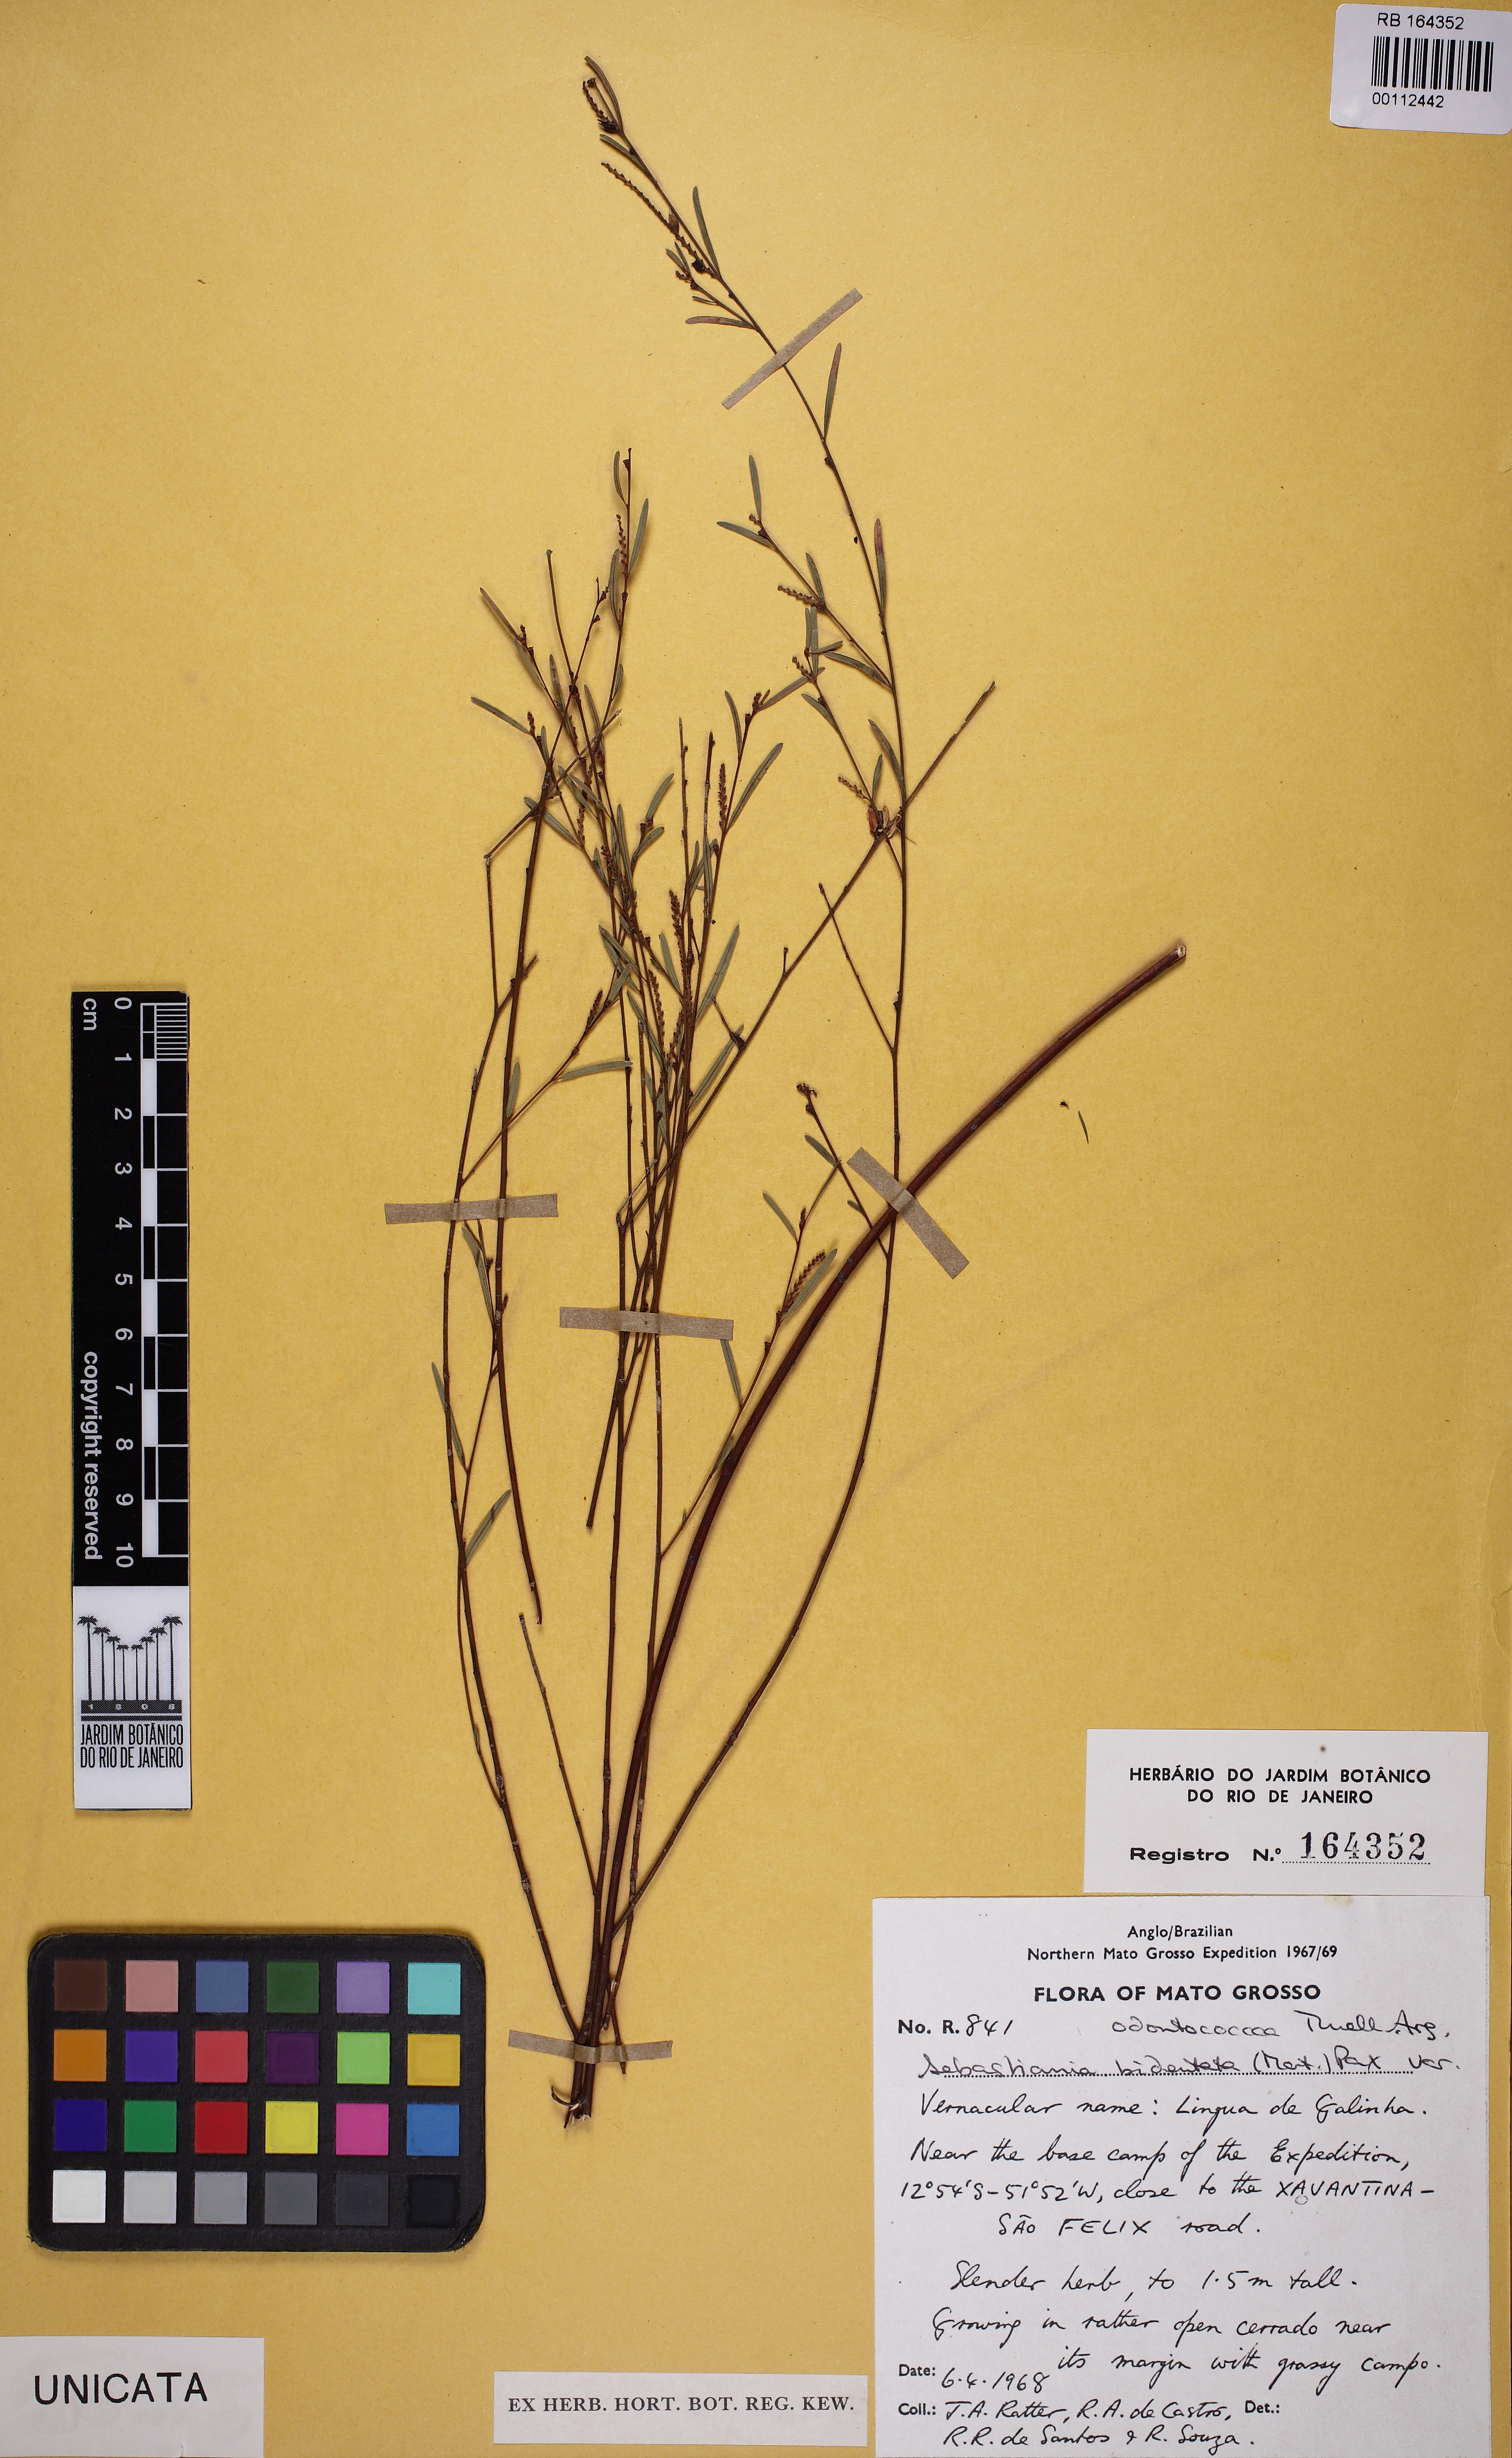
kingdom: Plantae
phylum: Tracheophyta
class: Magnoliopsida
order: Malpighiales
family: Euphorbiaceae
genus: Microstachys
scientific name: Microstachys bidentata
